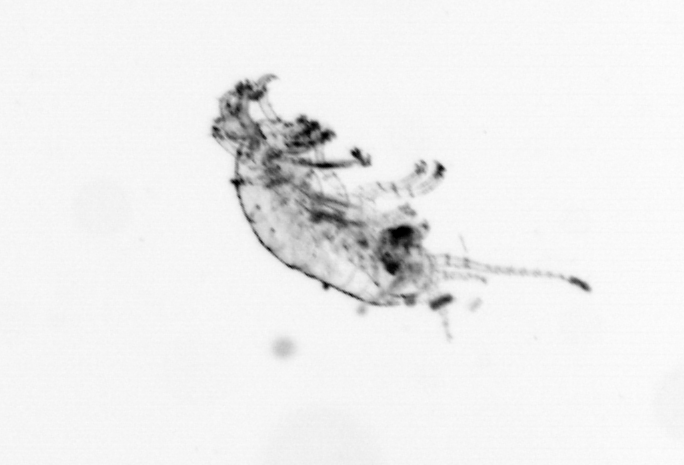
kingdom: Animalia
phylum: Arthropoda
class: Copepoda
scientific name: Copepoda
